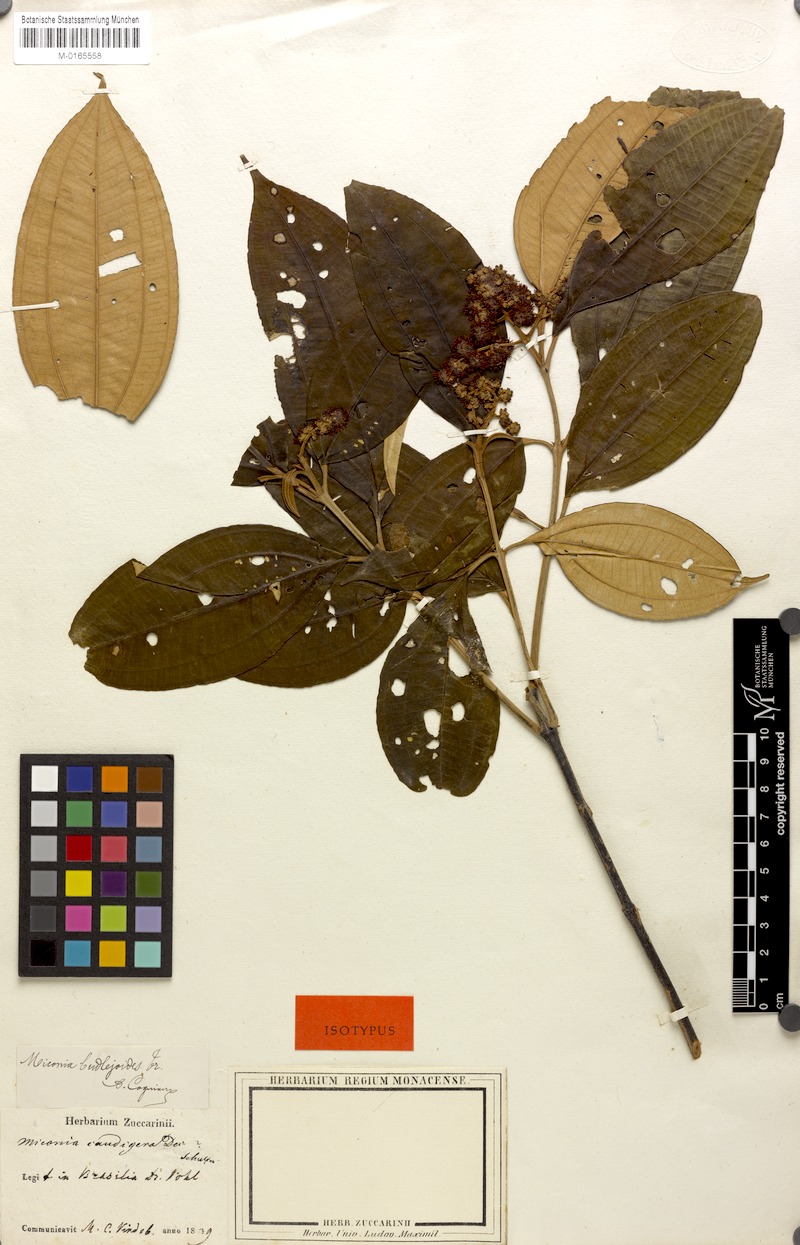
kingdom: Plantae
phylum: Tracheophyta
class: Magnoliopsida
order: Myrtales
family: Melastomataceae
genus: Miconia
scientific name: Miconia buddlejoides
